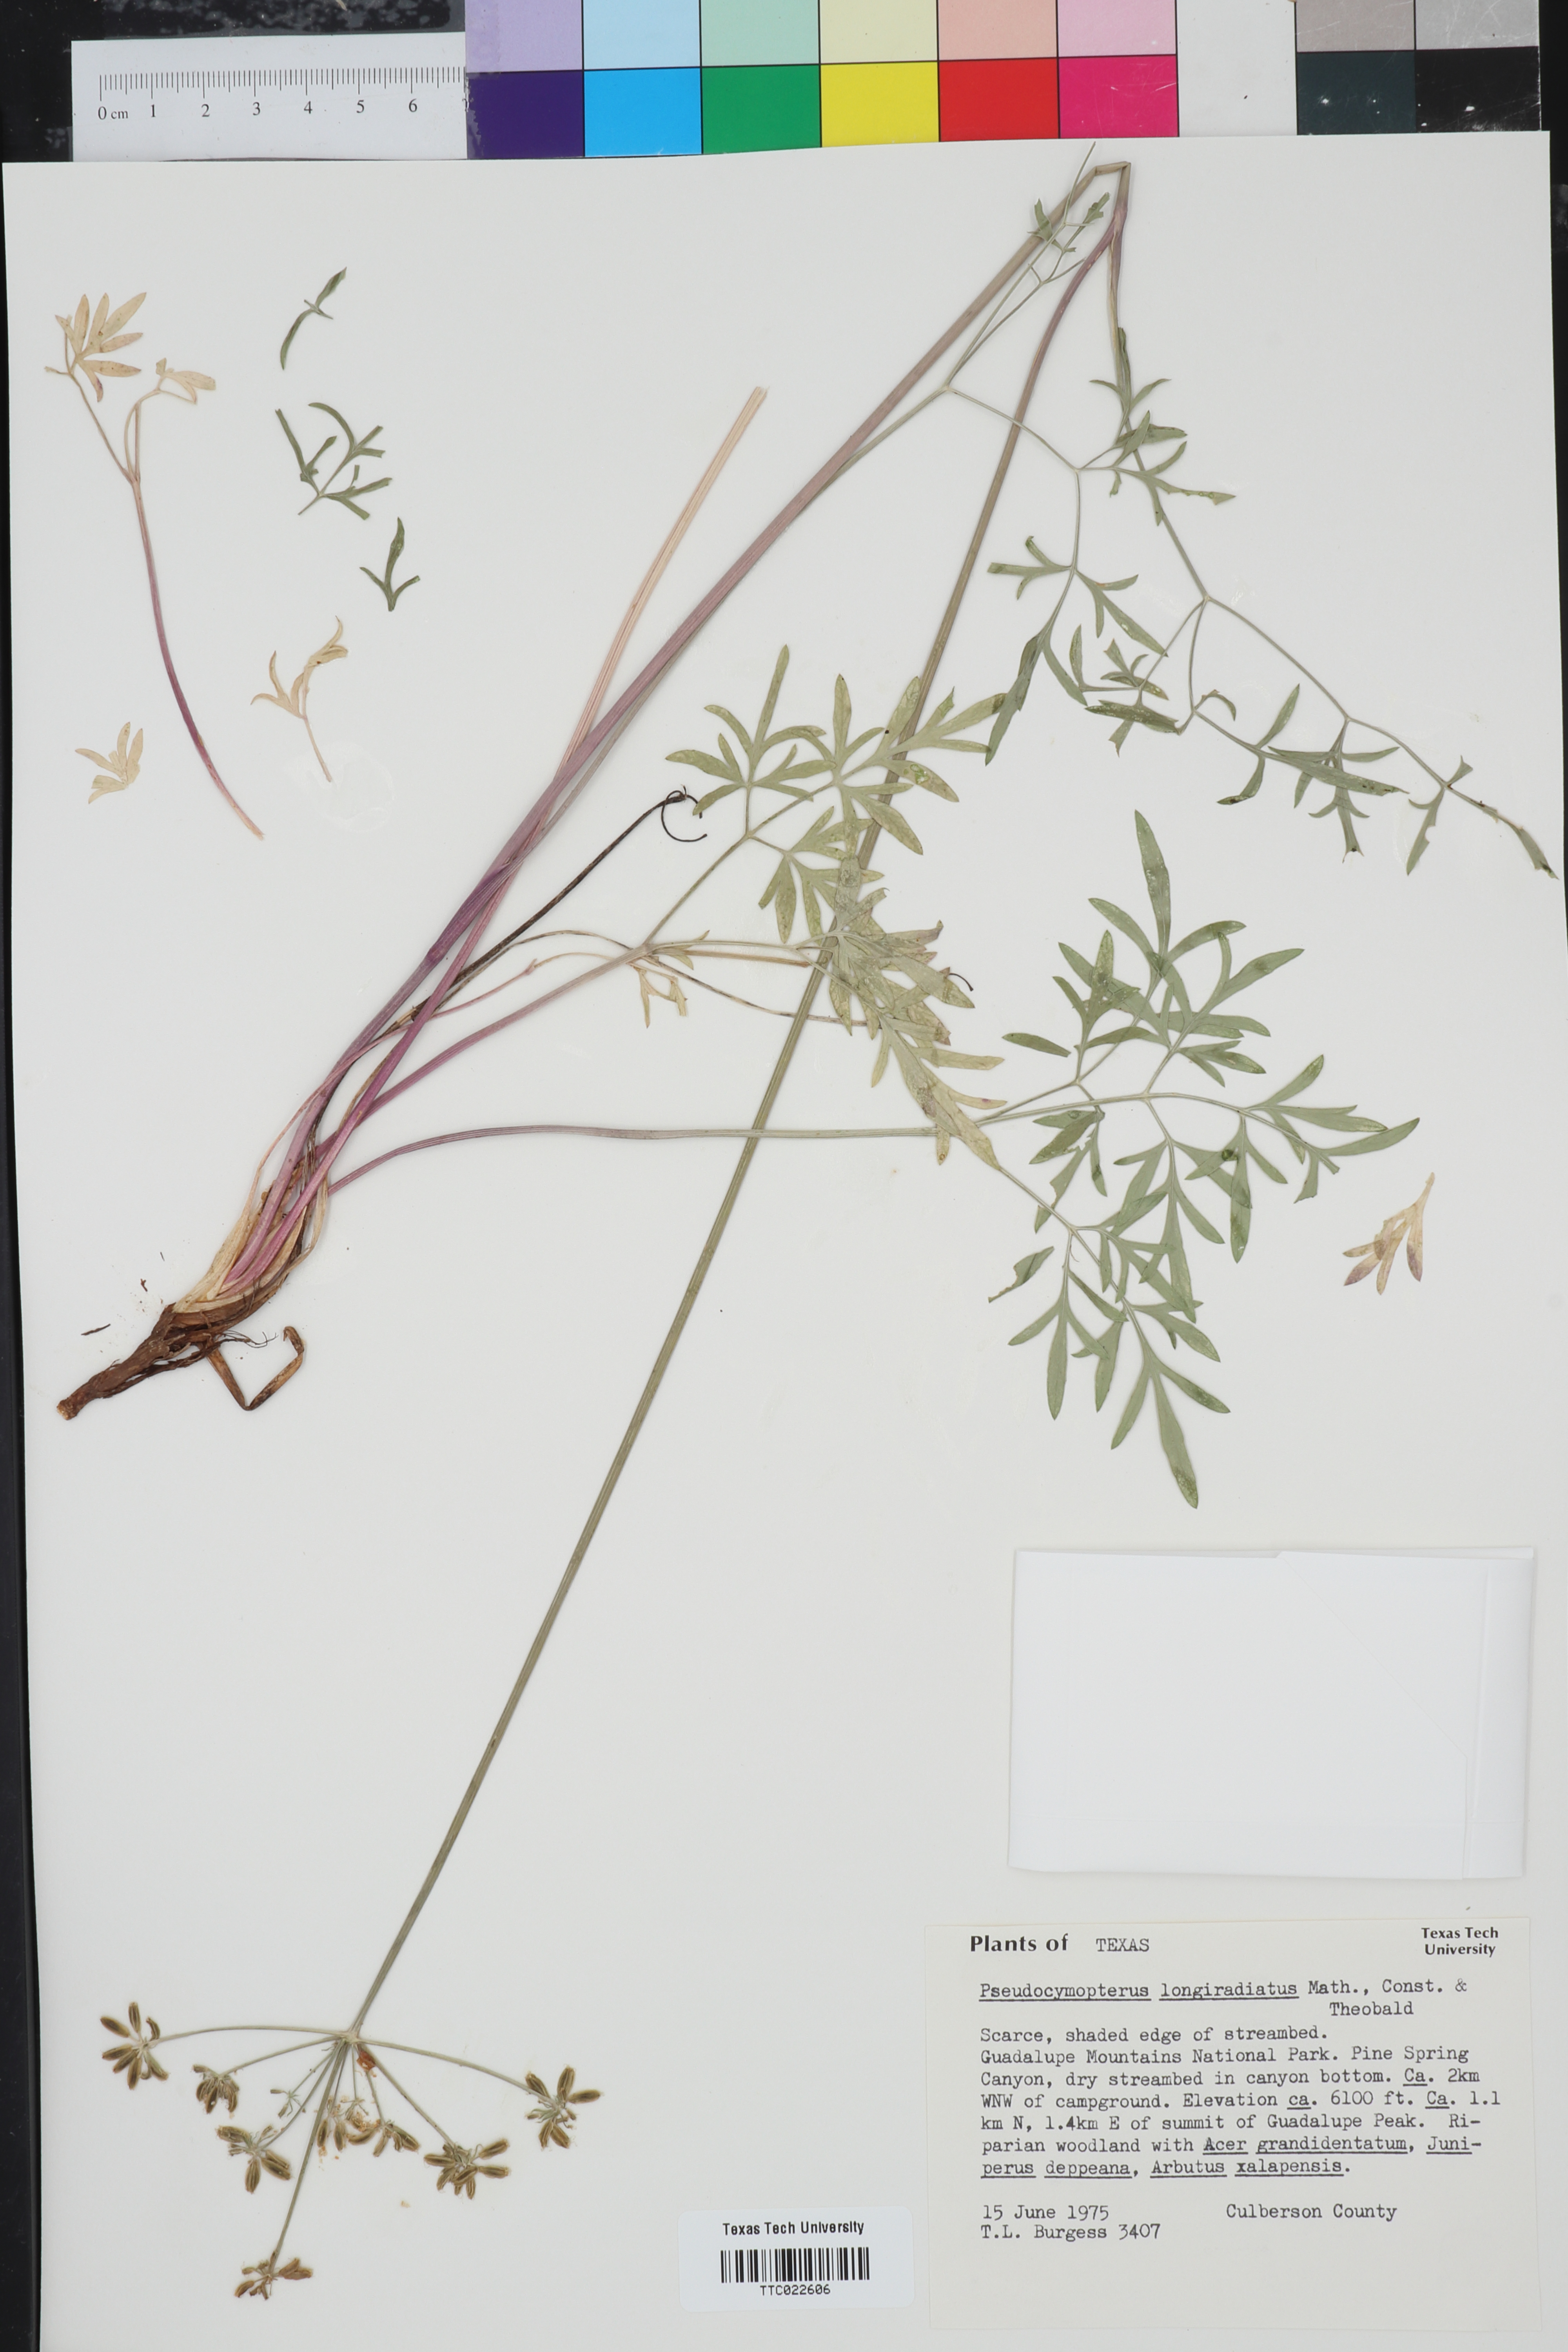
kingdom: Plantae
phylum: Tracheophyta
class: Magnoliopsida
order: Apiales
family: Apiaceae
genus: Pseudocymopterus
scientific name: Pseudocymopterus longiradiatus
